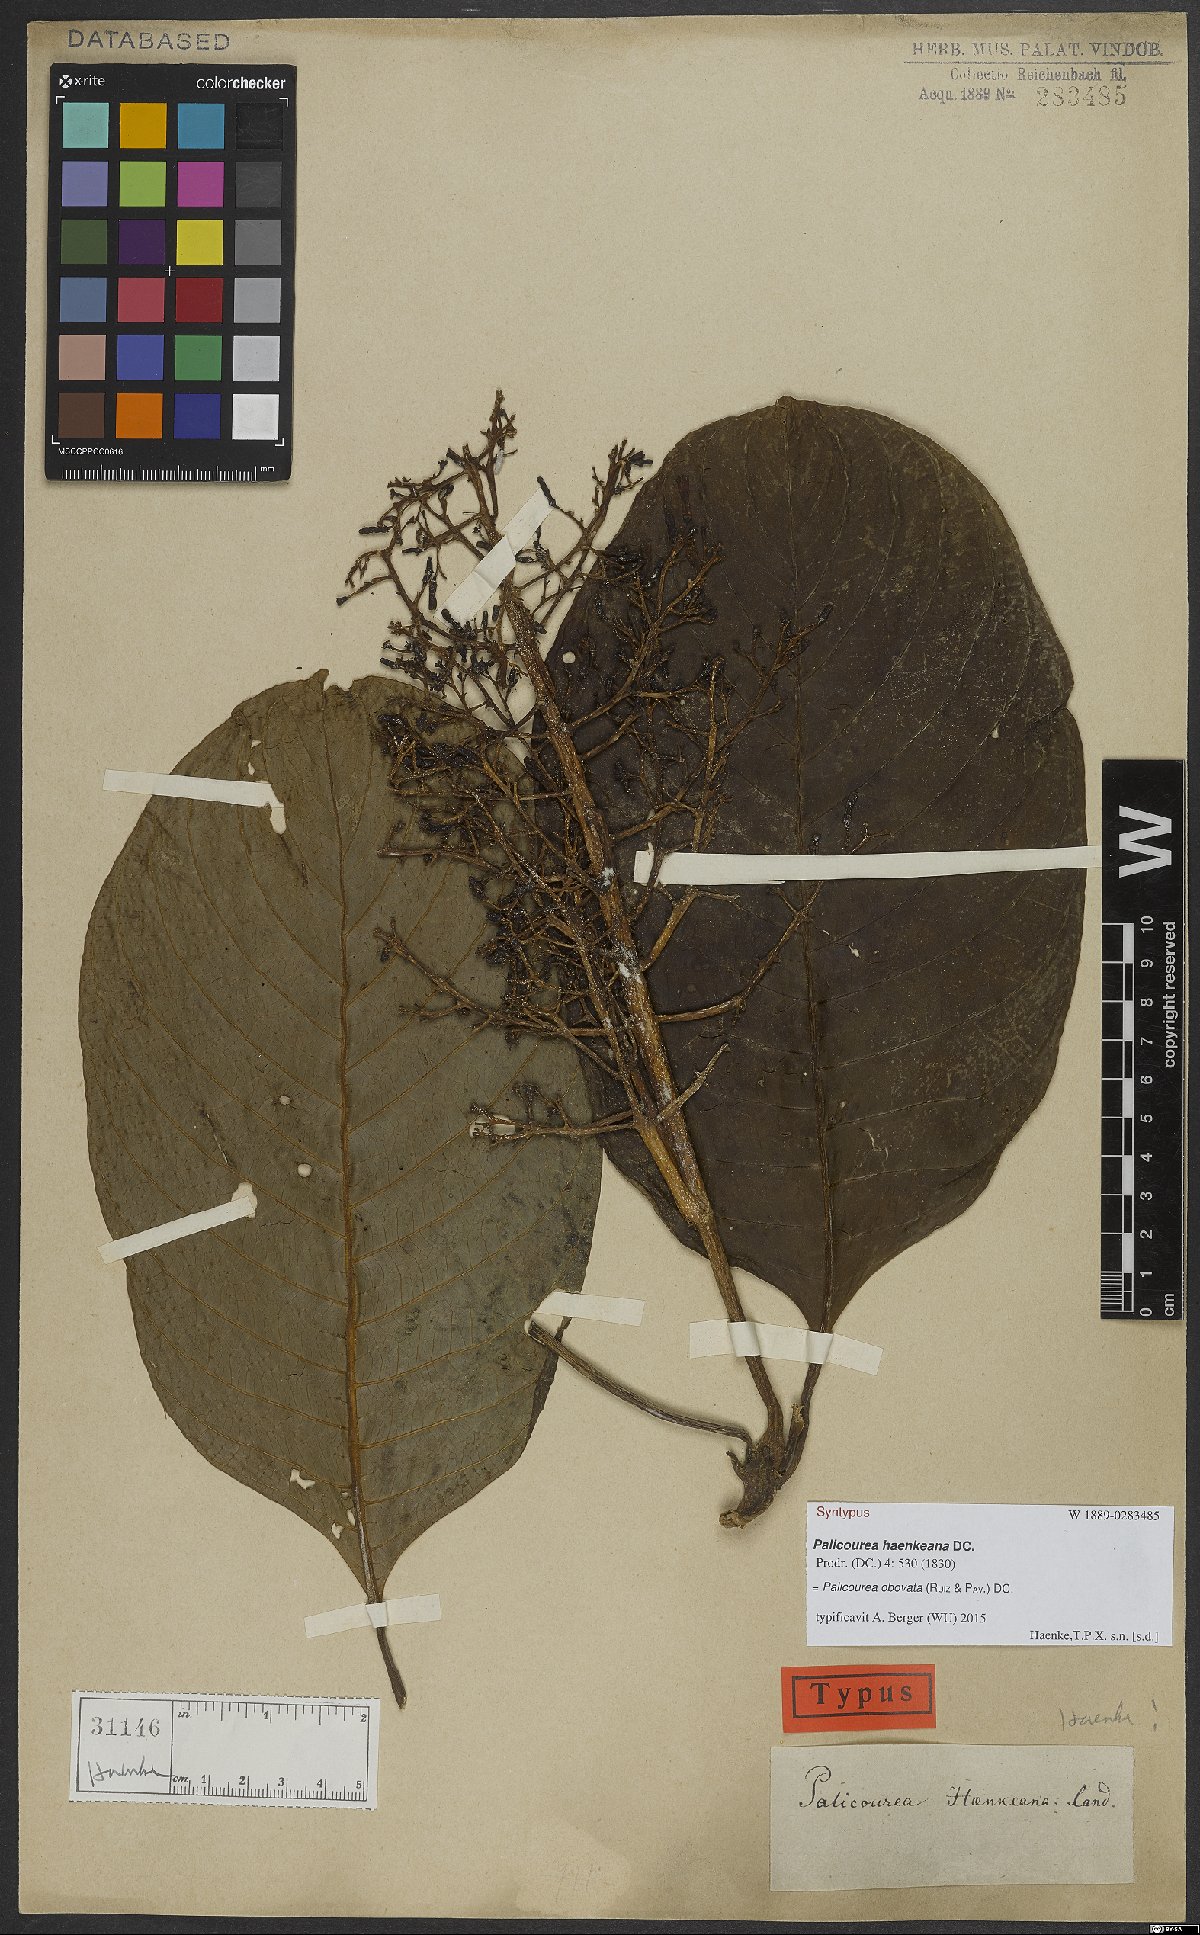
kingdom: Plantae
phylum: Tracheophyta
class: Magnoliopsida
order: Gentianales
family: Rubiaceae
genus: Palicourea
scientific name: Palicourea obovata
